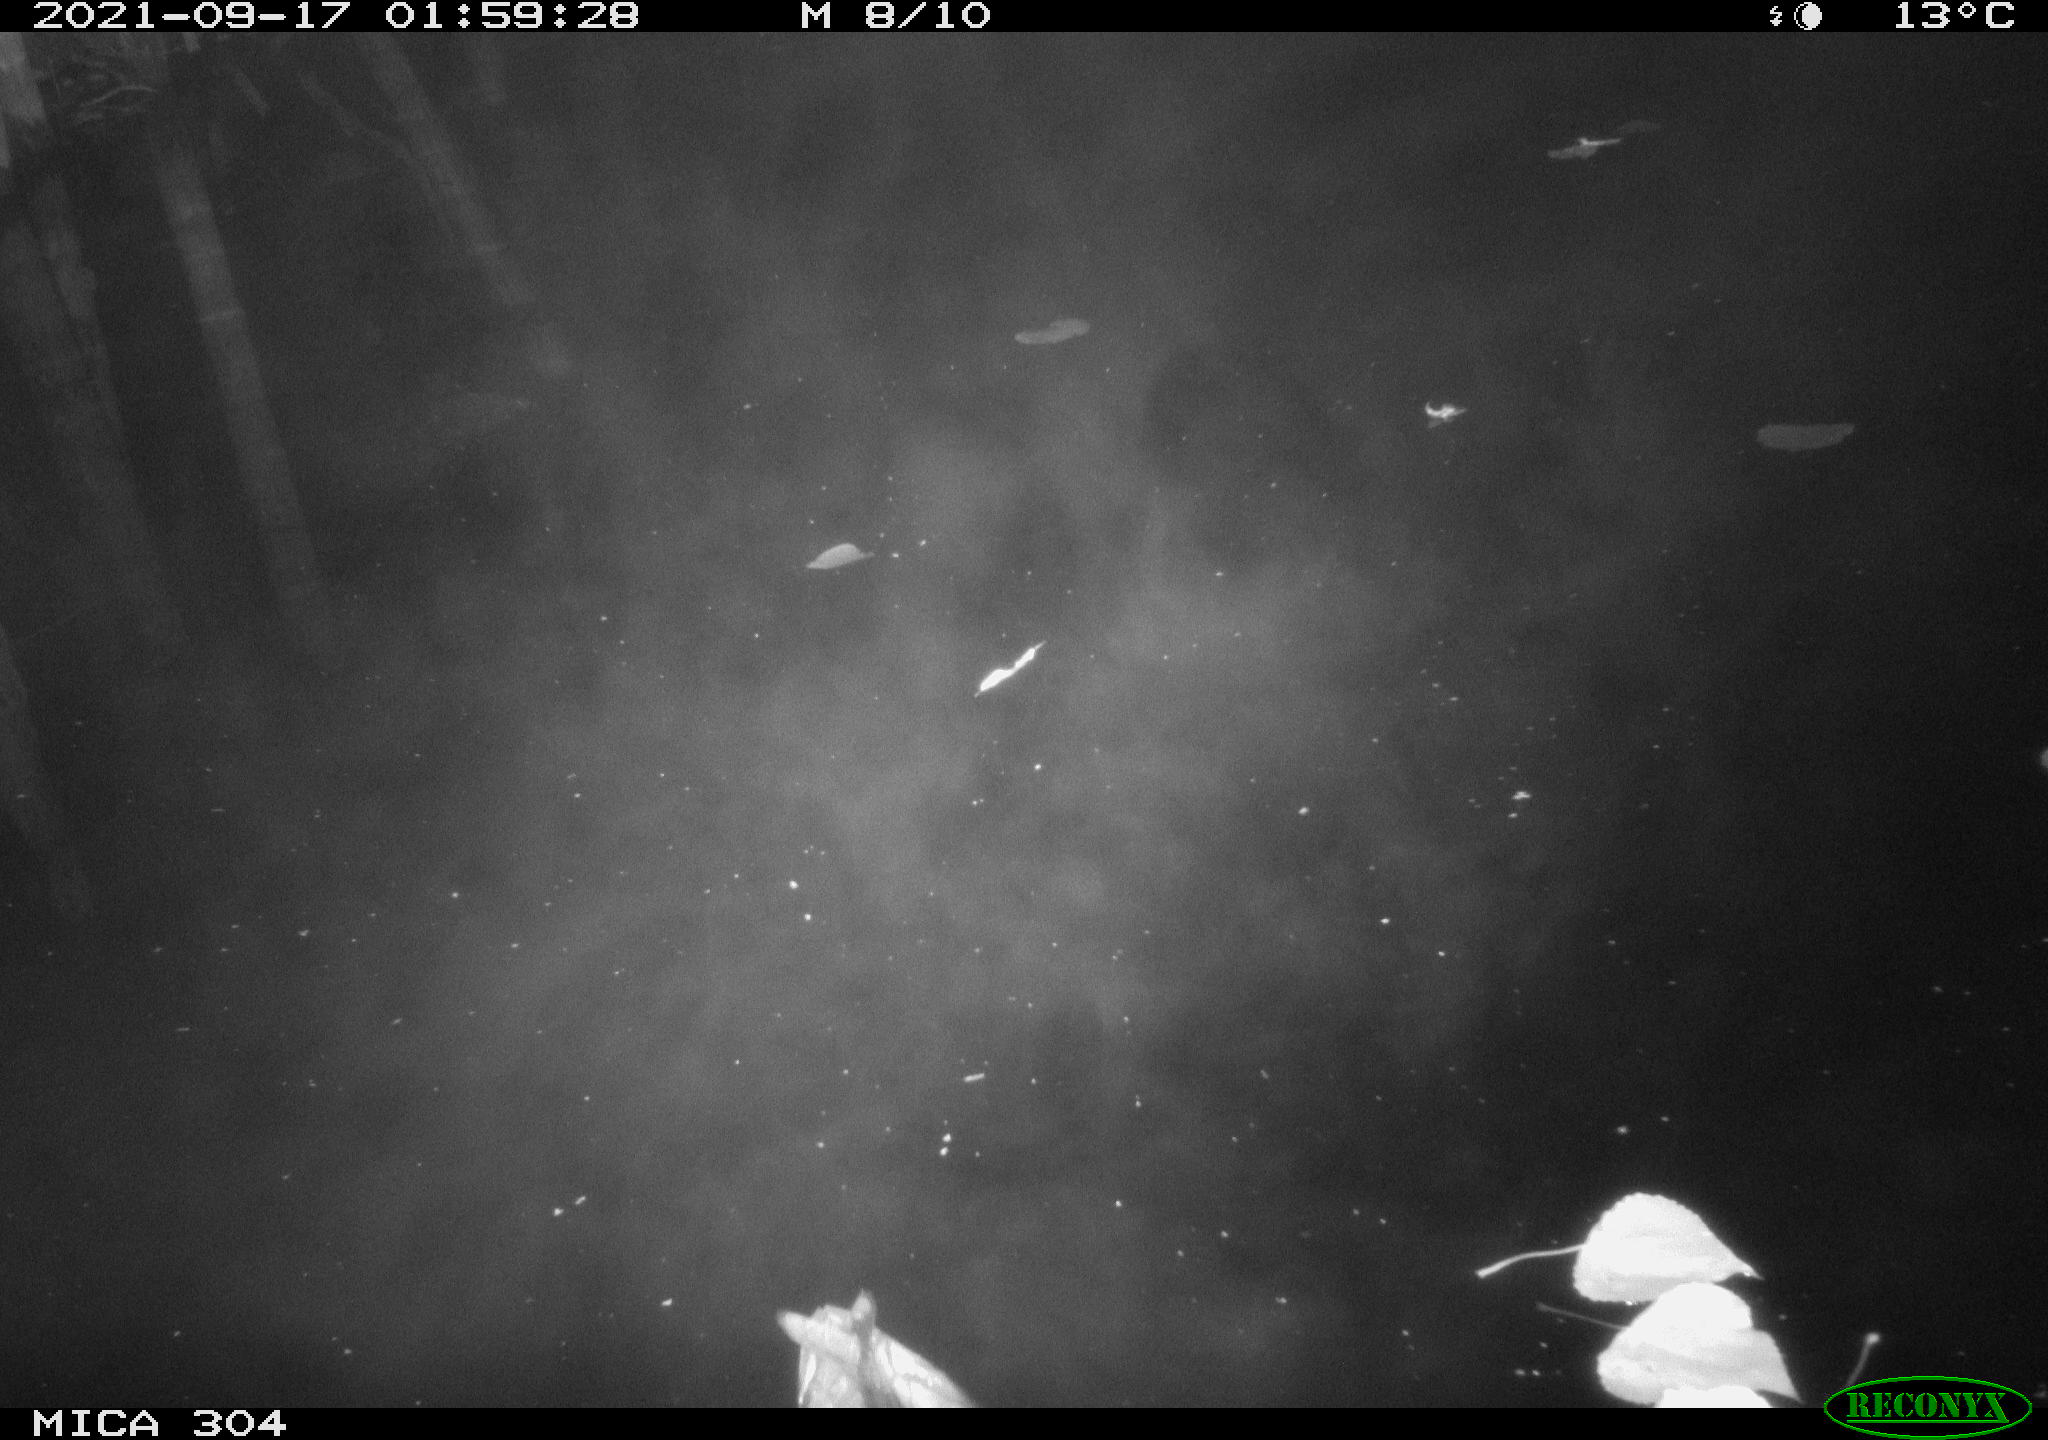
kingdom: Animalia
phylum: Chordata
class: Aves
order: Anseriformes
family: Anatidae
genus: Anas
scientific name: Anas platyrhynchos
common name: Mallard
